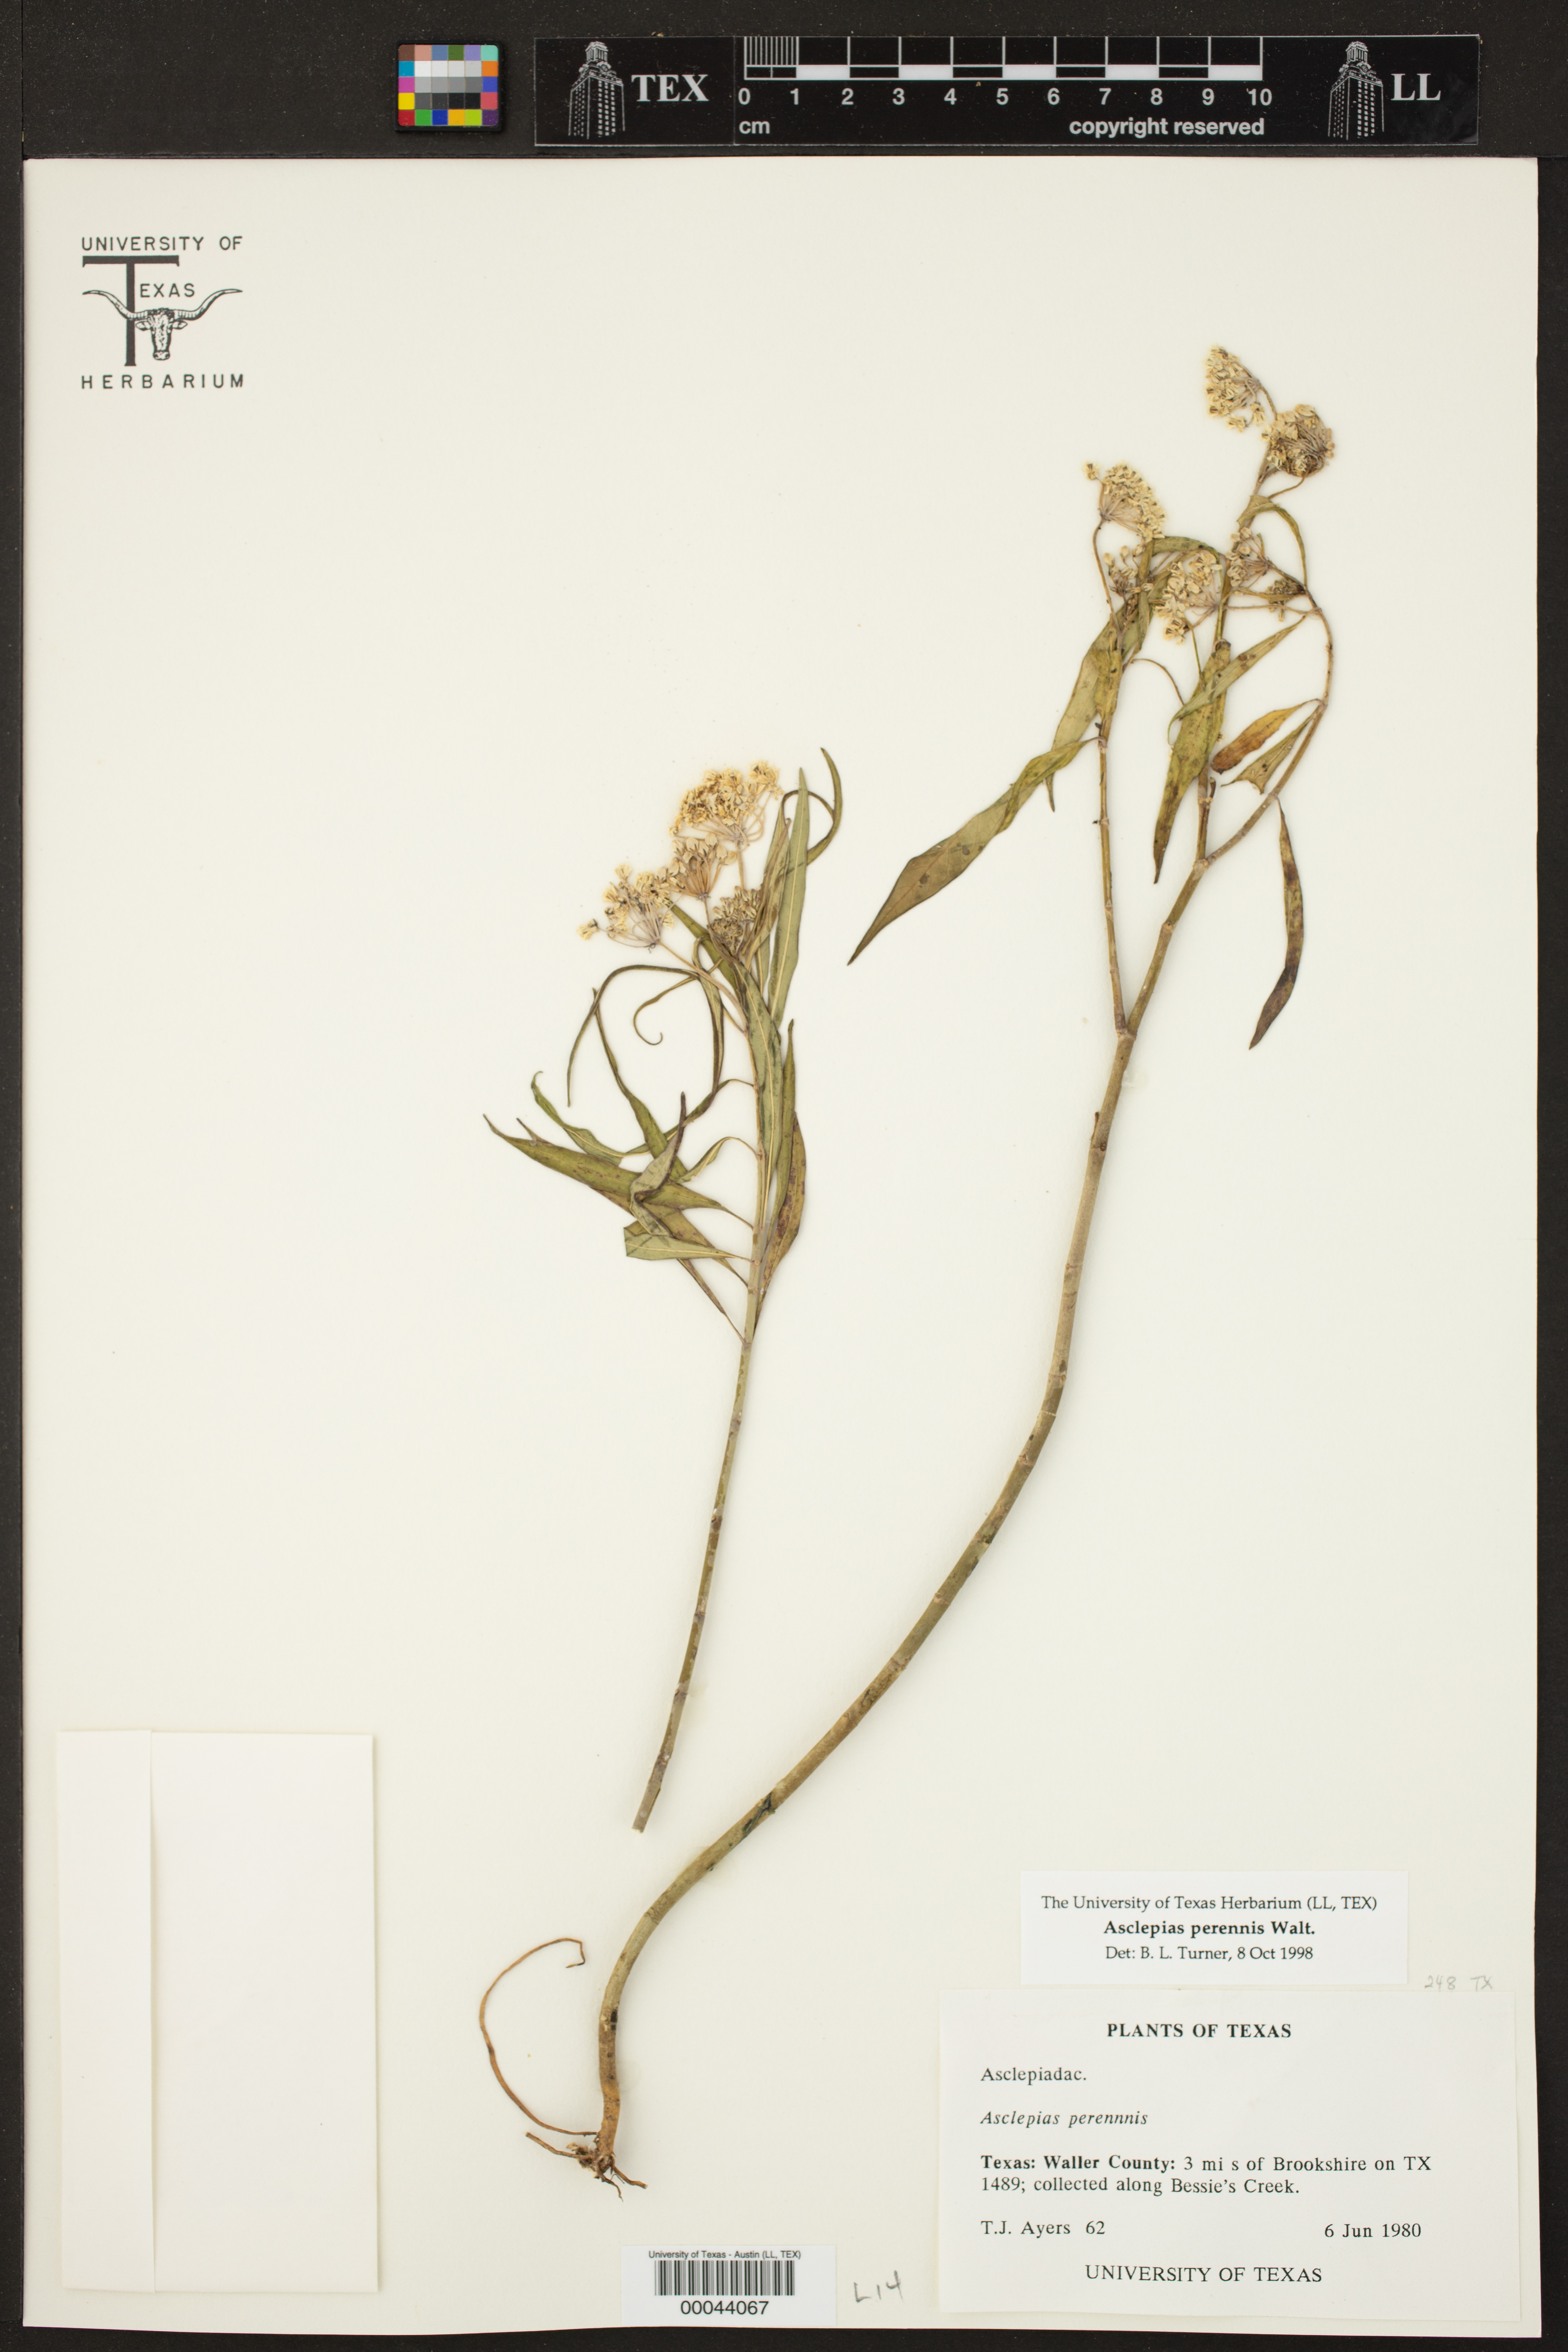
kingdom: Plantae
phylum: Tracheophyta
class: Magnoliopsida
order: Gentianales
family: Apocynaceae
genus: Asclepias
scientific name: Asclepias perennis
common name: Smooth-seed milkweed
